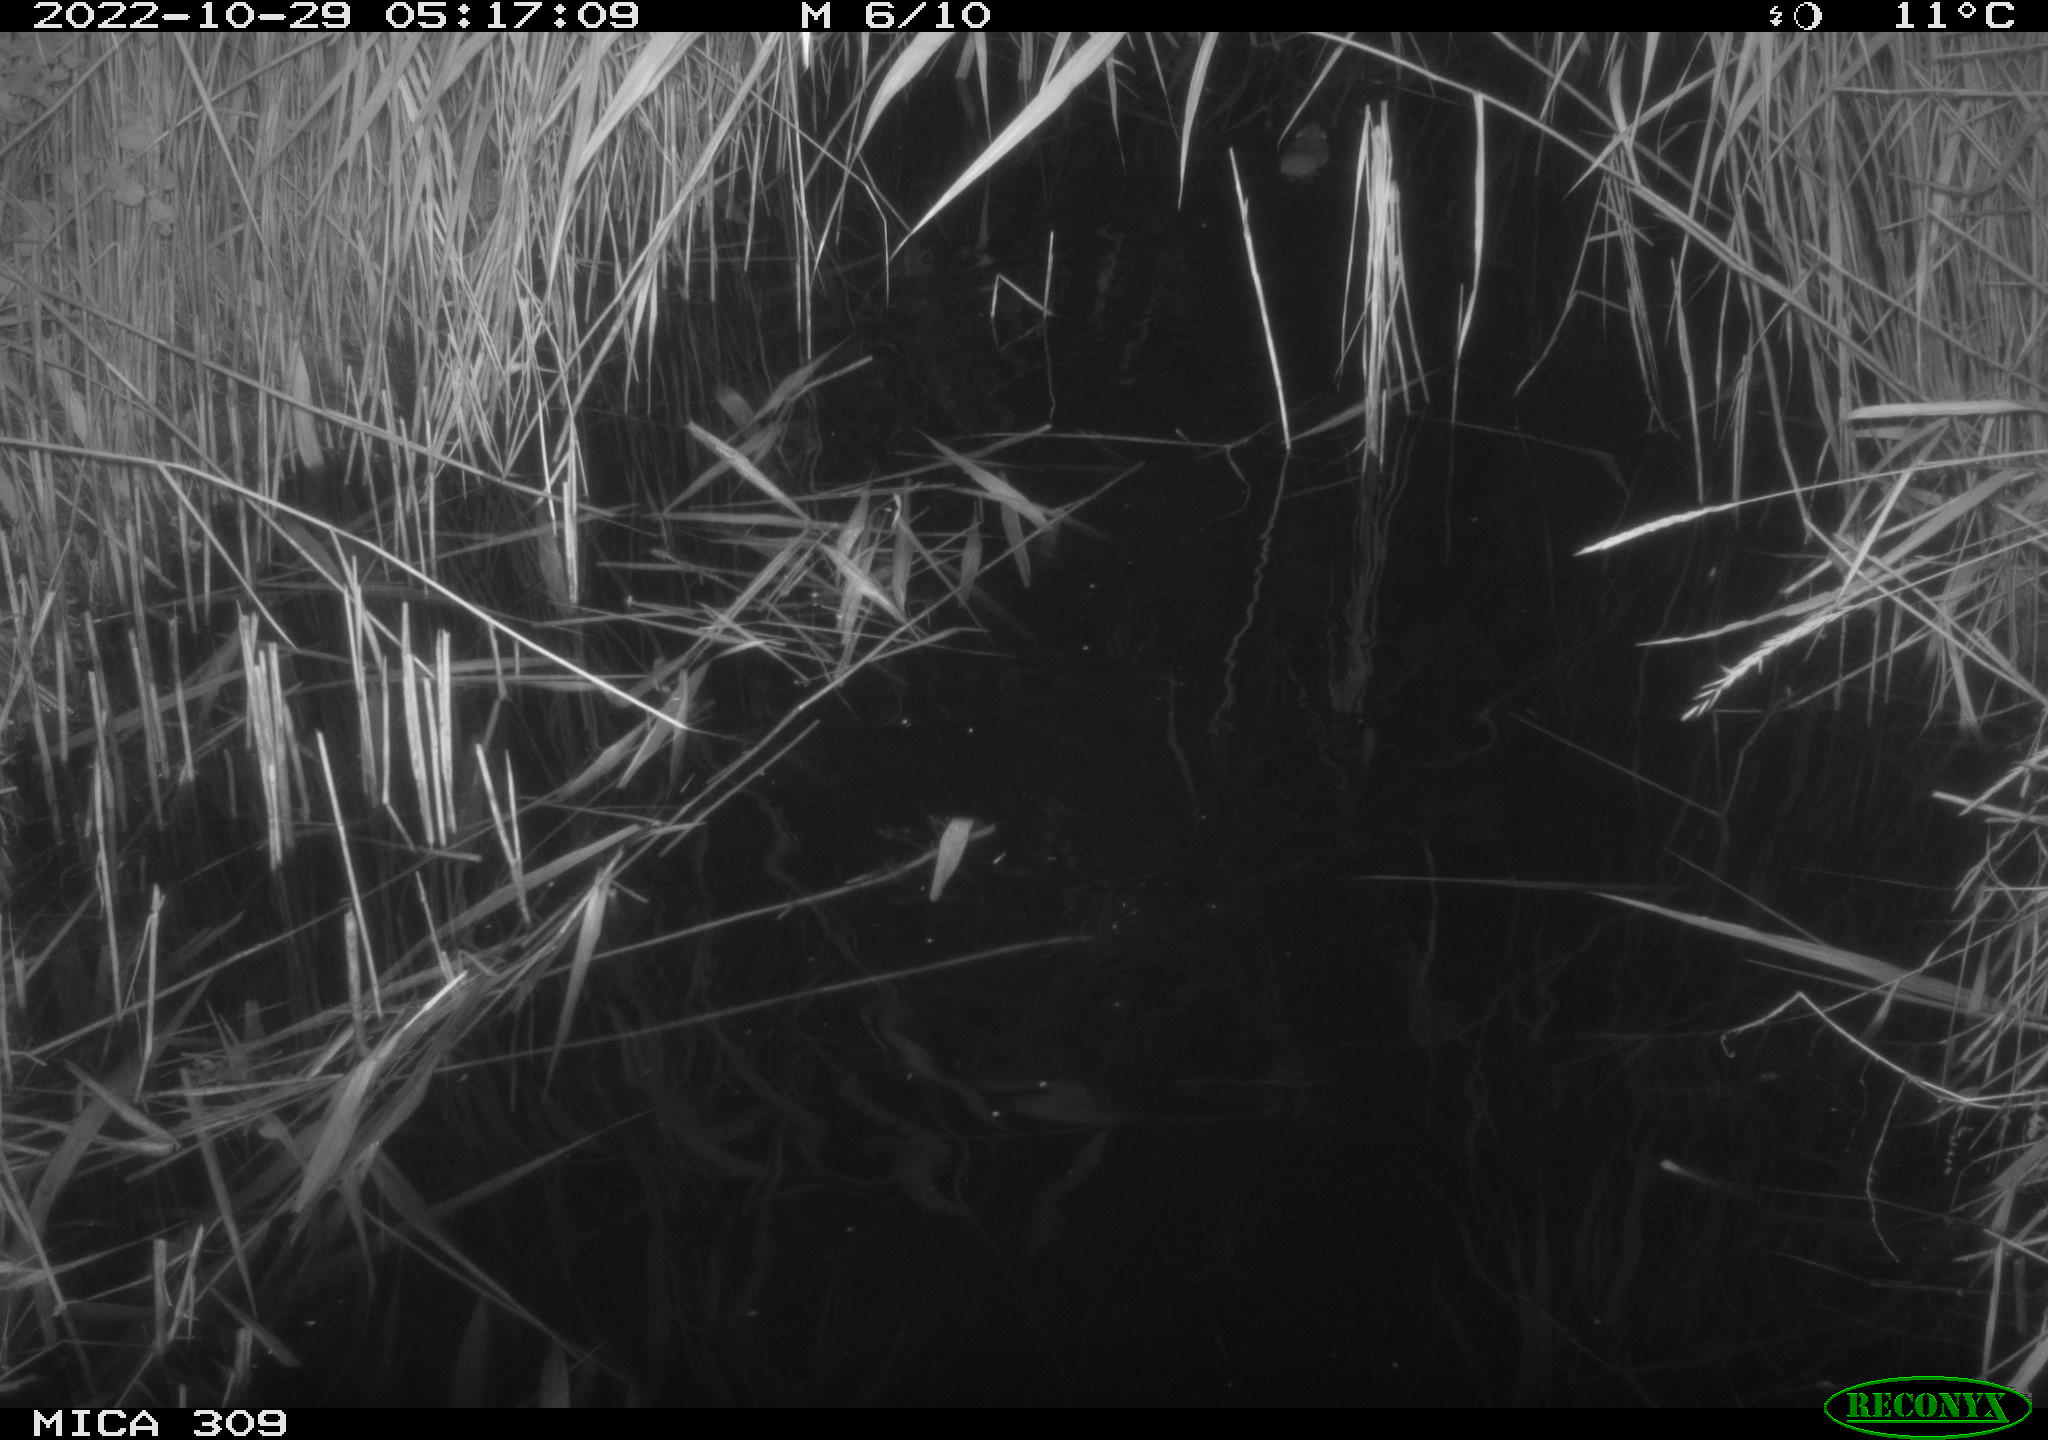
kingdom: Animalia
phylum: Chordata
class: Mammalia
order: Rodentia
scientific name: Rodentia
